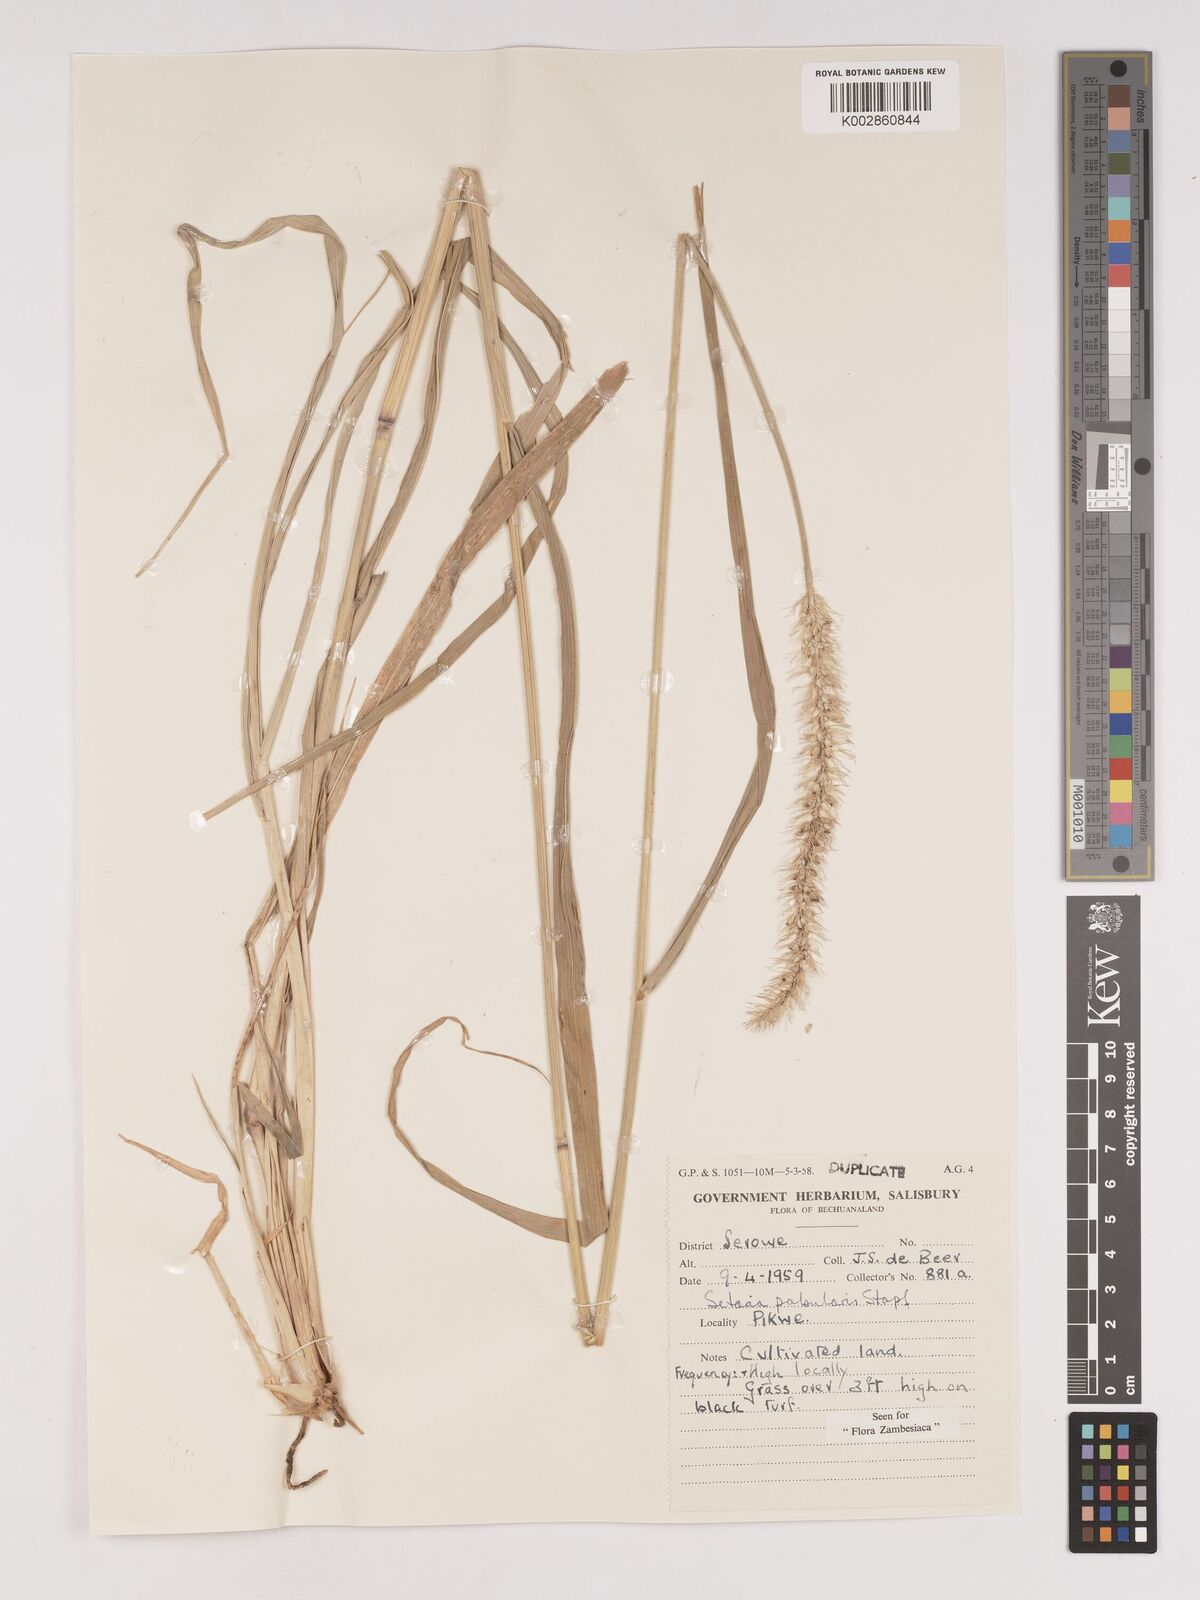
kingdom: Plantae
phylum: Tracheophyta
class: Liliopsida
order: Poales
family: Poaceae
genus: Setaria
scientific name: Setaria incrassata
